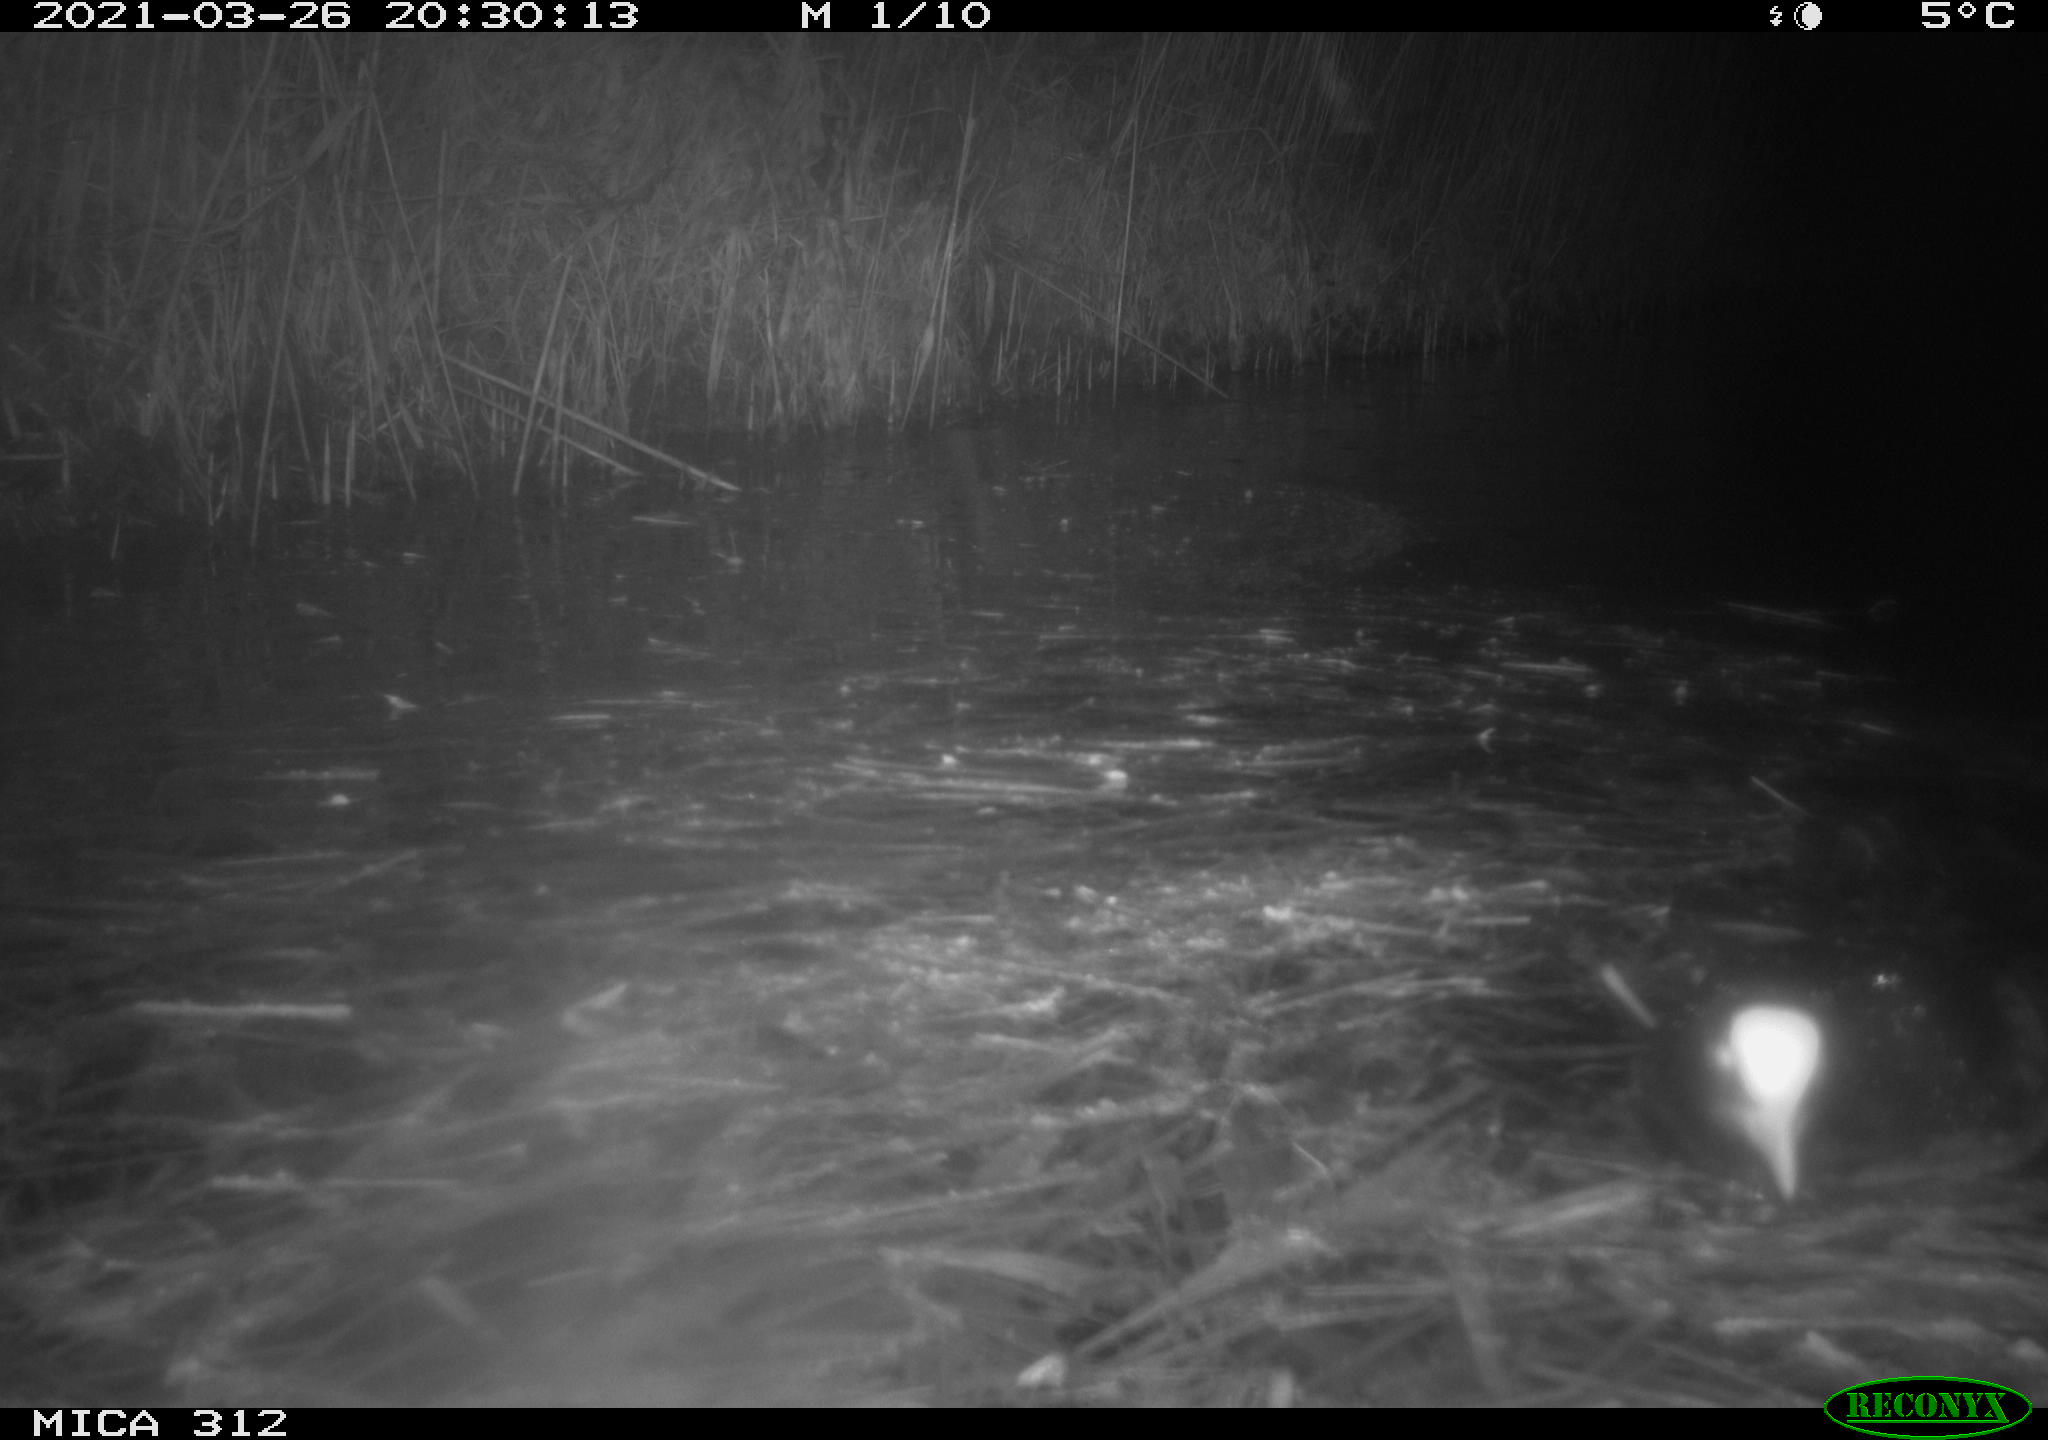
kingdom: Animalia
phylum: Chordata
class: Aves
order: Gruiformes
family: Rallidae
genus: Fulica
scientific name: Fulica atra
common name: Eurasian coot
